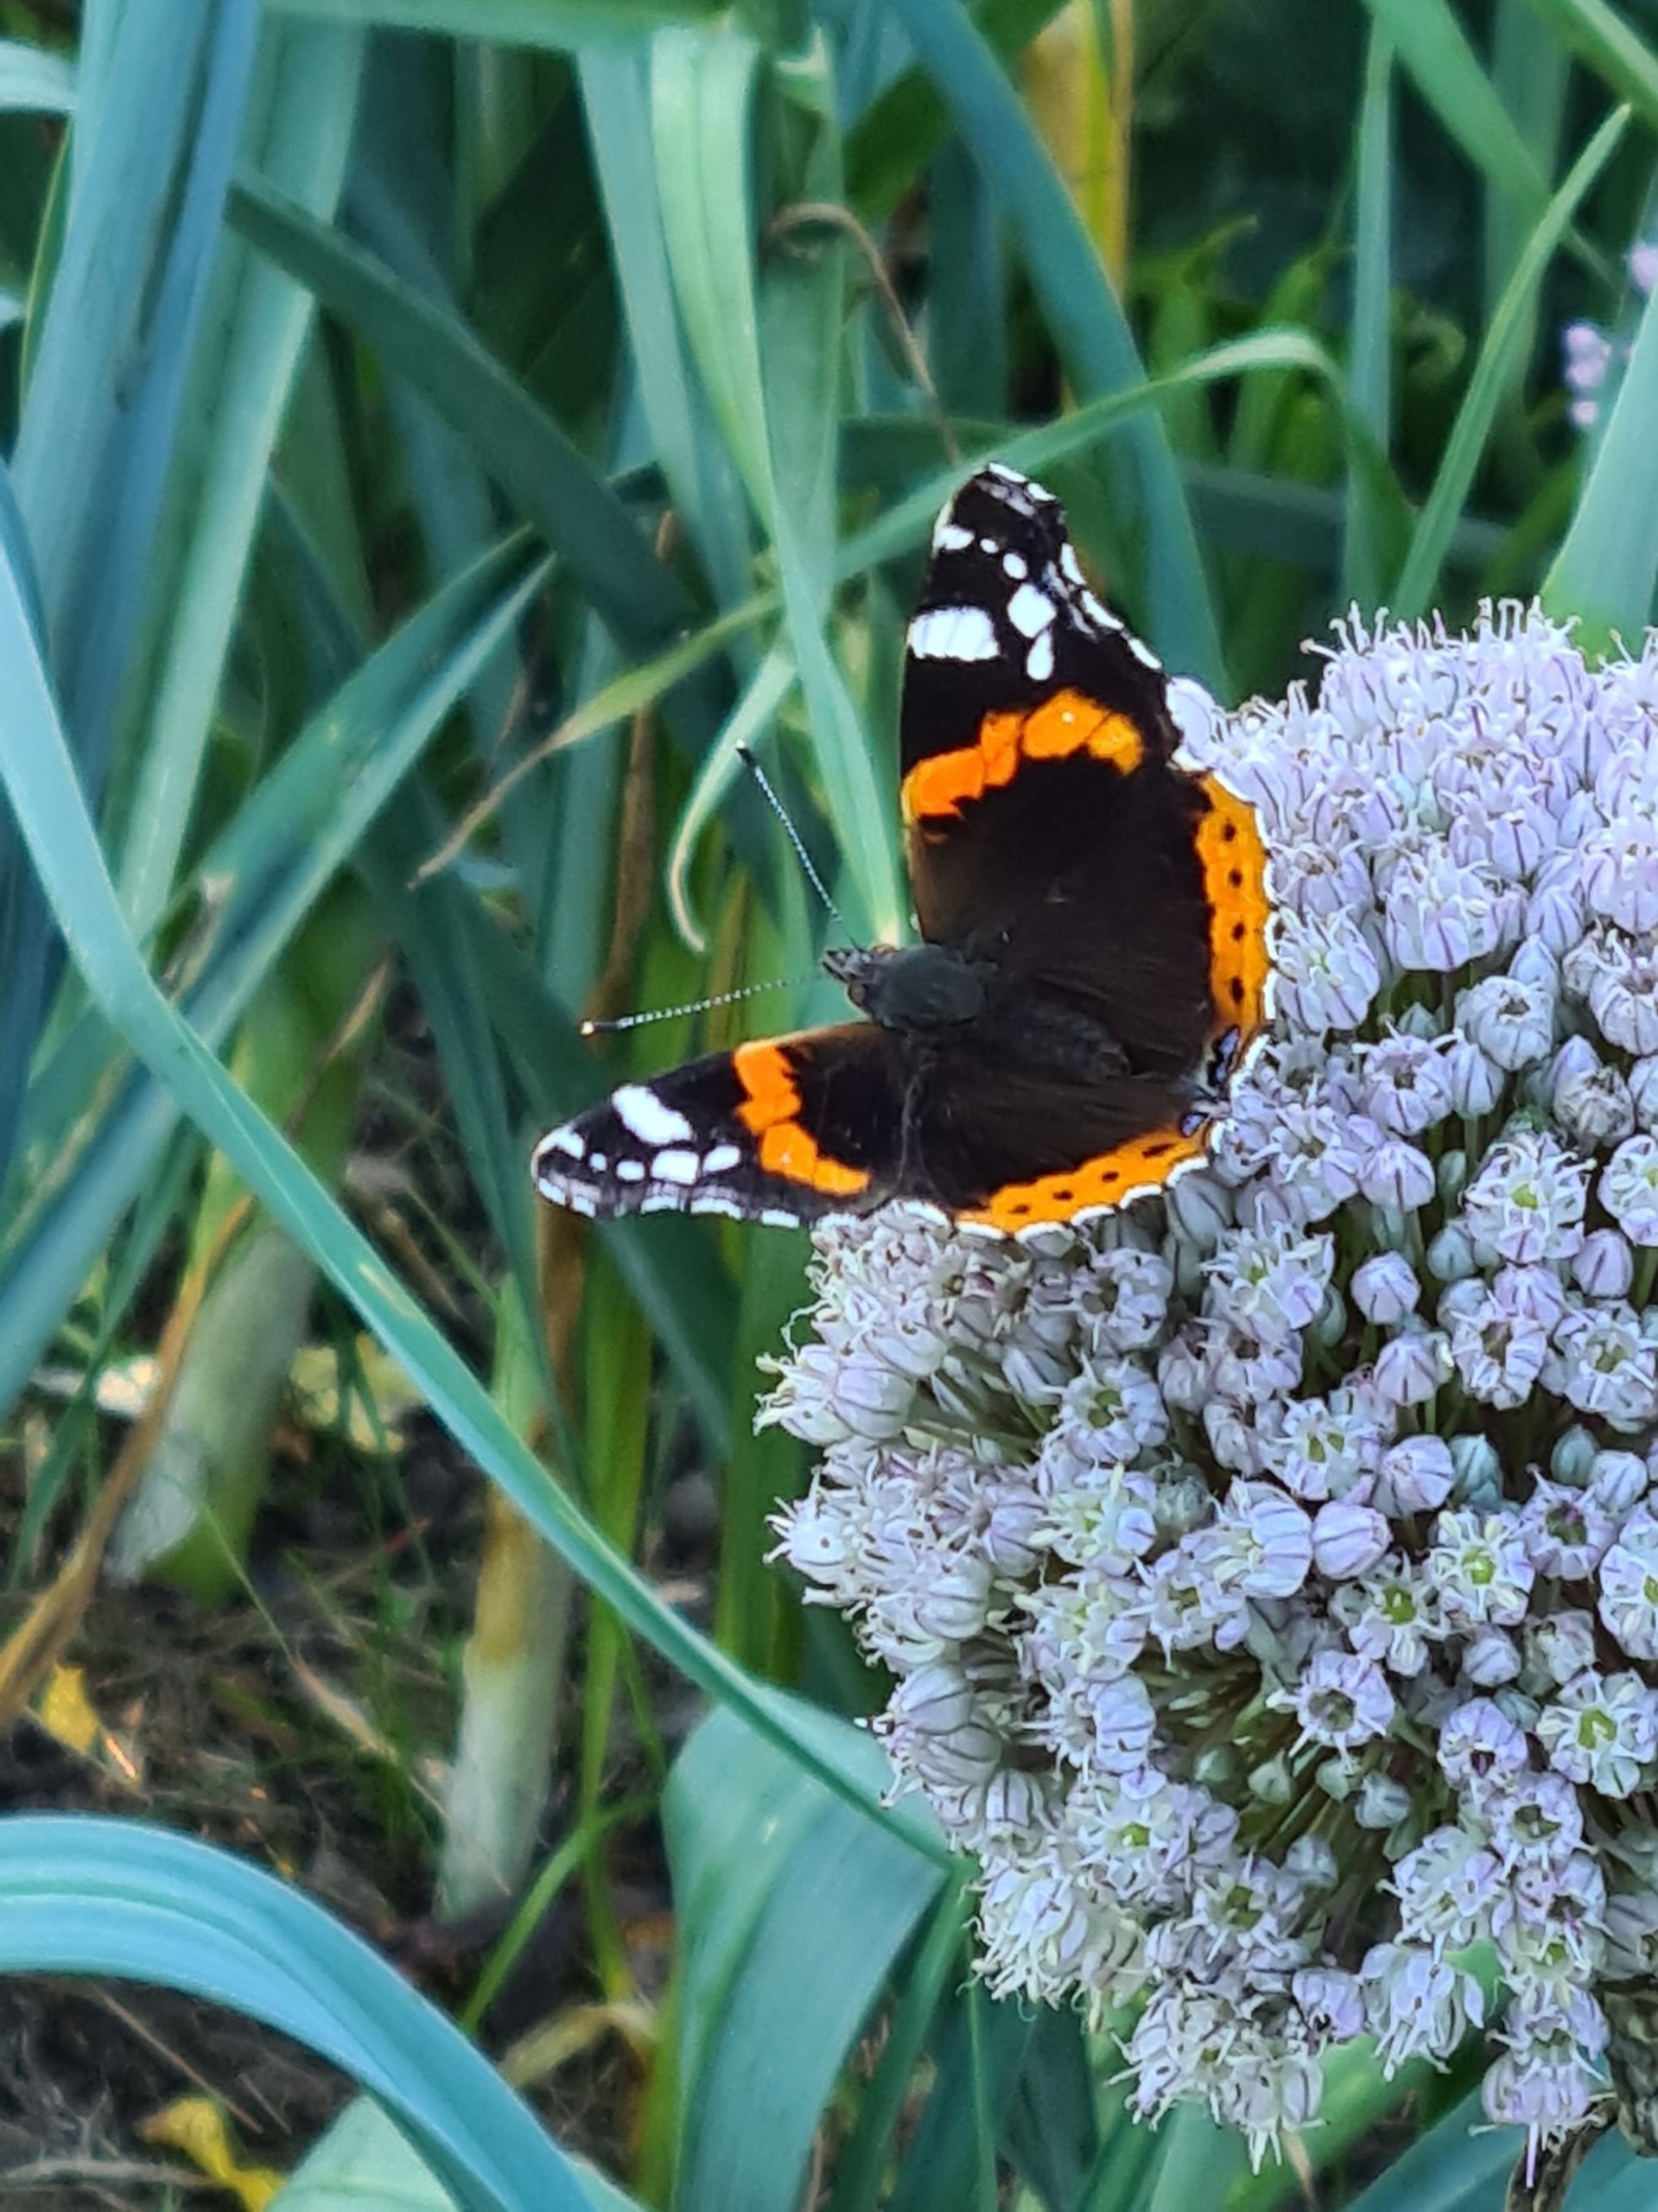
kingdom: Animalia
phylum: Arthropoda
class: Insecta
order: Lepidoptera
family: Nymphalidae
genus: Vanessa
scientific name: Vanessa atalanta
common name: Admiral
